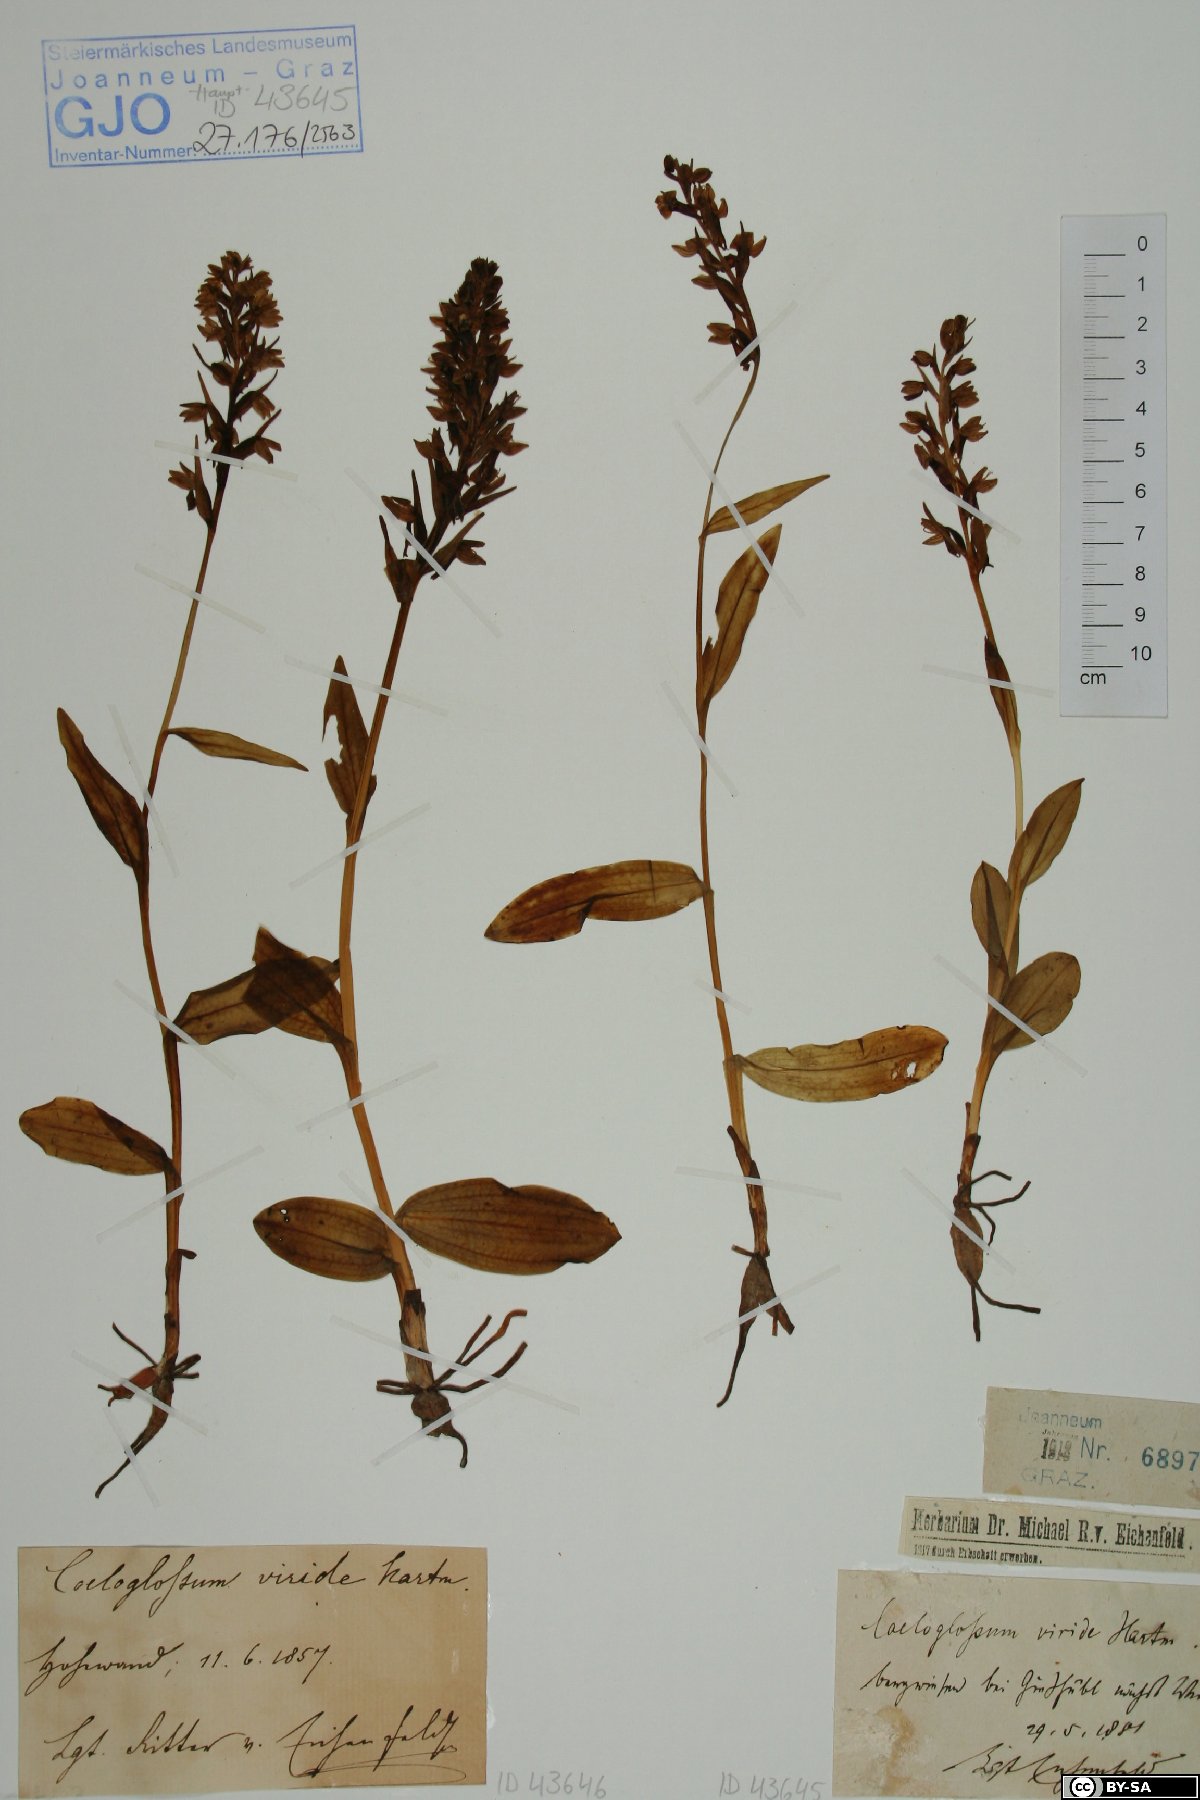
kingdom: Plantae
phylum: Tracheophyta
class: Liliopsida
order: Asparagales
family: Orchidaceae
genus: Dactylorhiza
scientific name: Dactylorhiza viridis
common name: Longbract frog orchid
